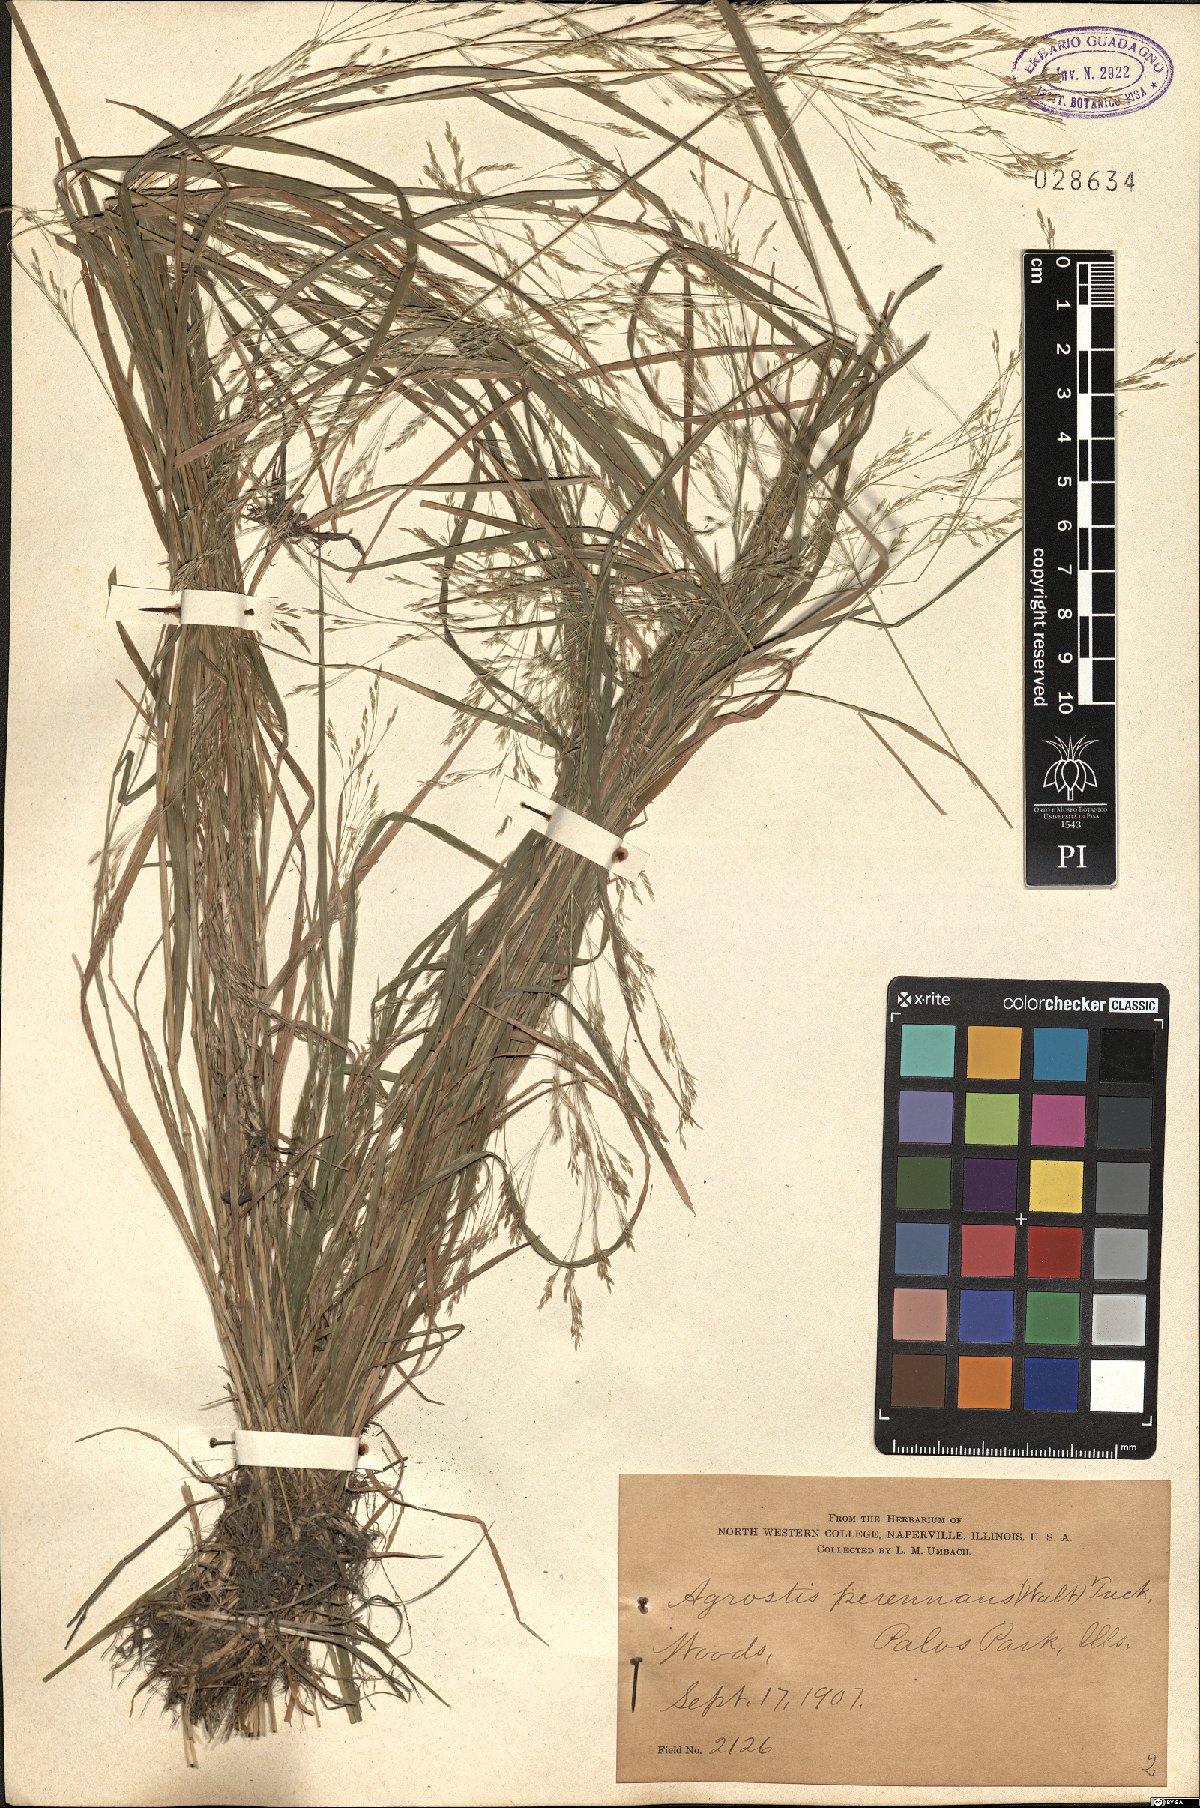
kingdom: Plantae
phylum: Tracheophyta
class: Liliopsida
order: Poales
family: Poaceae
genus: Agrostis
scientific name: Agrostis perennans
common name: Autumn bent
